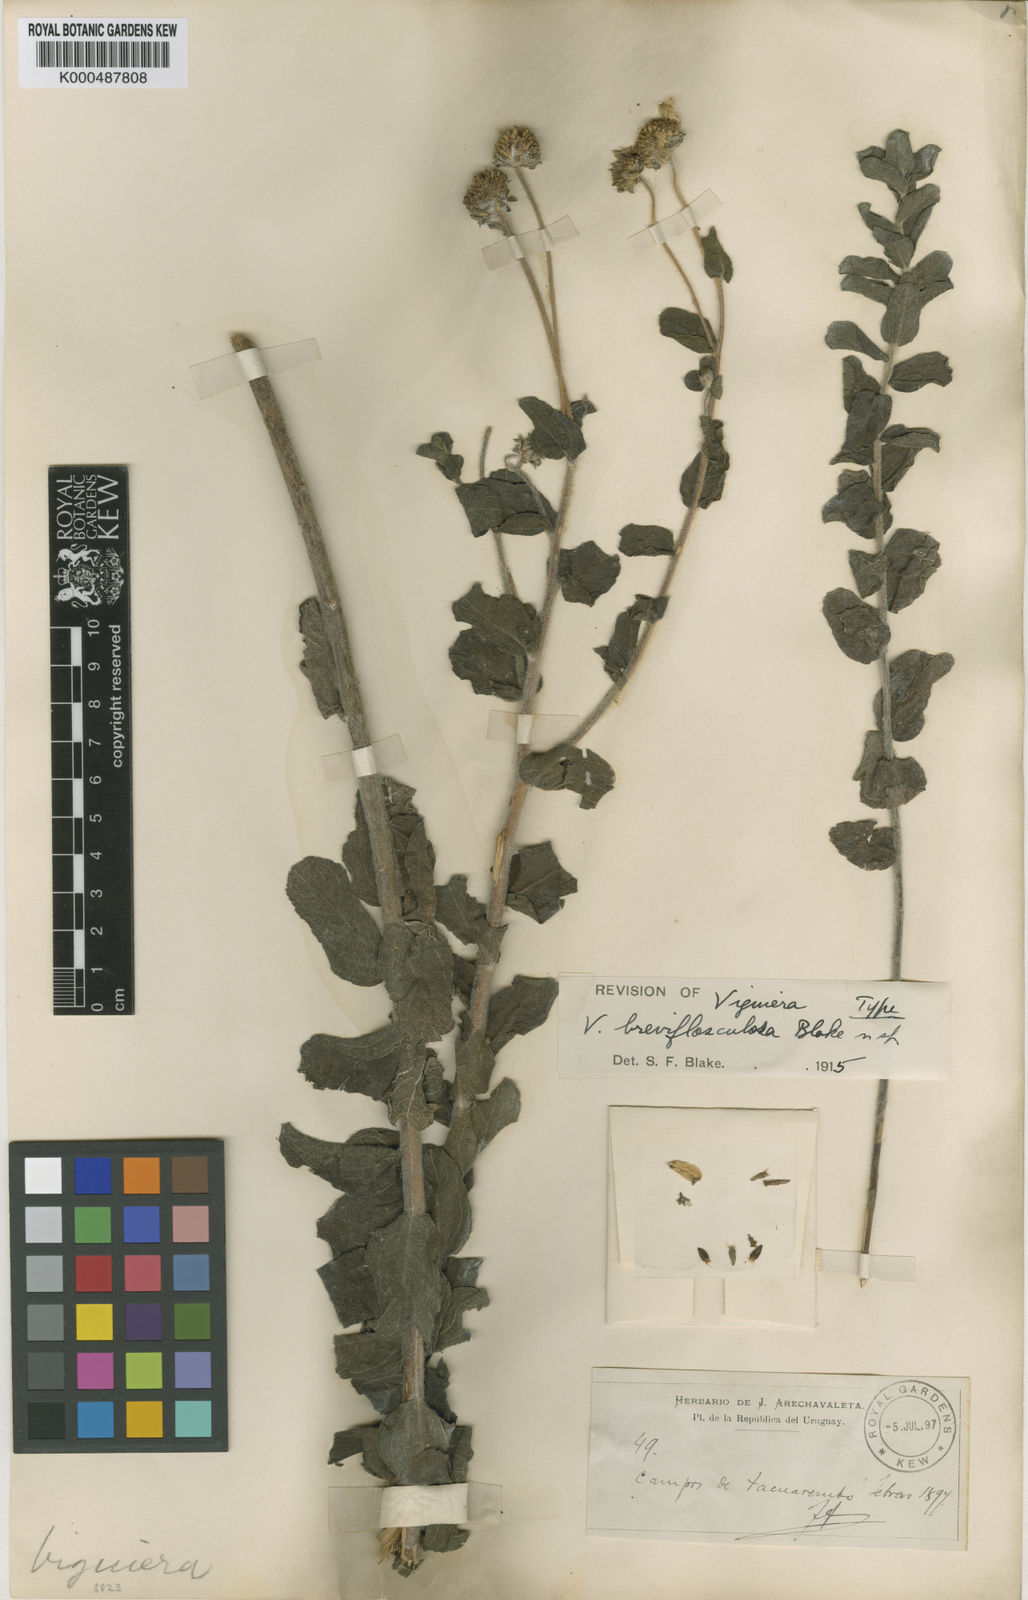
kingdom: Plantae
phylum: Tracheophyta
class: Magnoliopsida
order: Asterales
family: Asteraceae
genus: Aldama
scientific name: Aldama breviflosculosa
